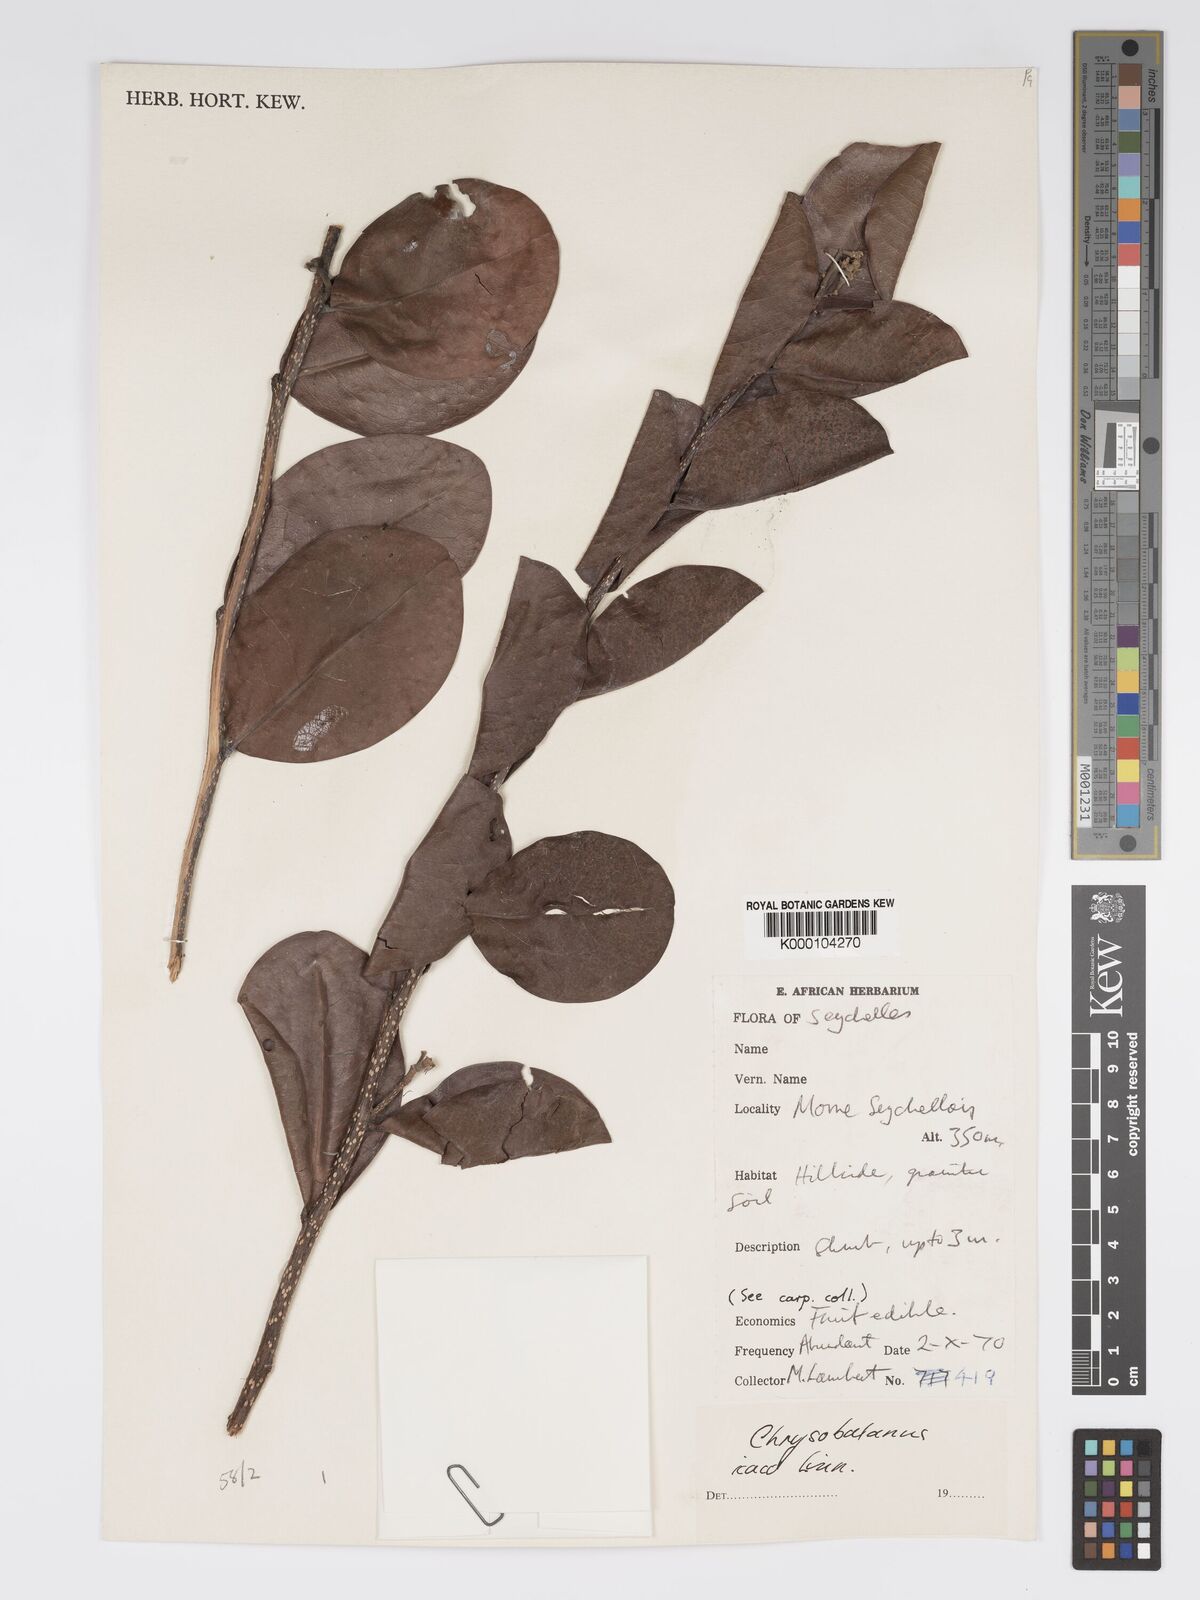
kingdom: Plantae
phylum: Tracheophyta
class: Magnoliopsida
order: Malpighiales
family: Chrysobalanaceae
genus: Chrysobalanus
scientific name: Chrysobalanus icaco
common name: Coco plum
